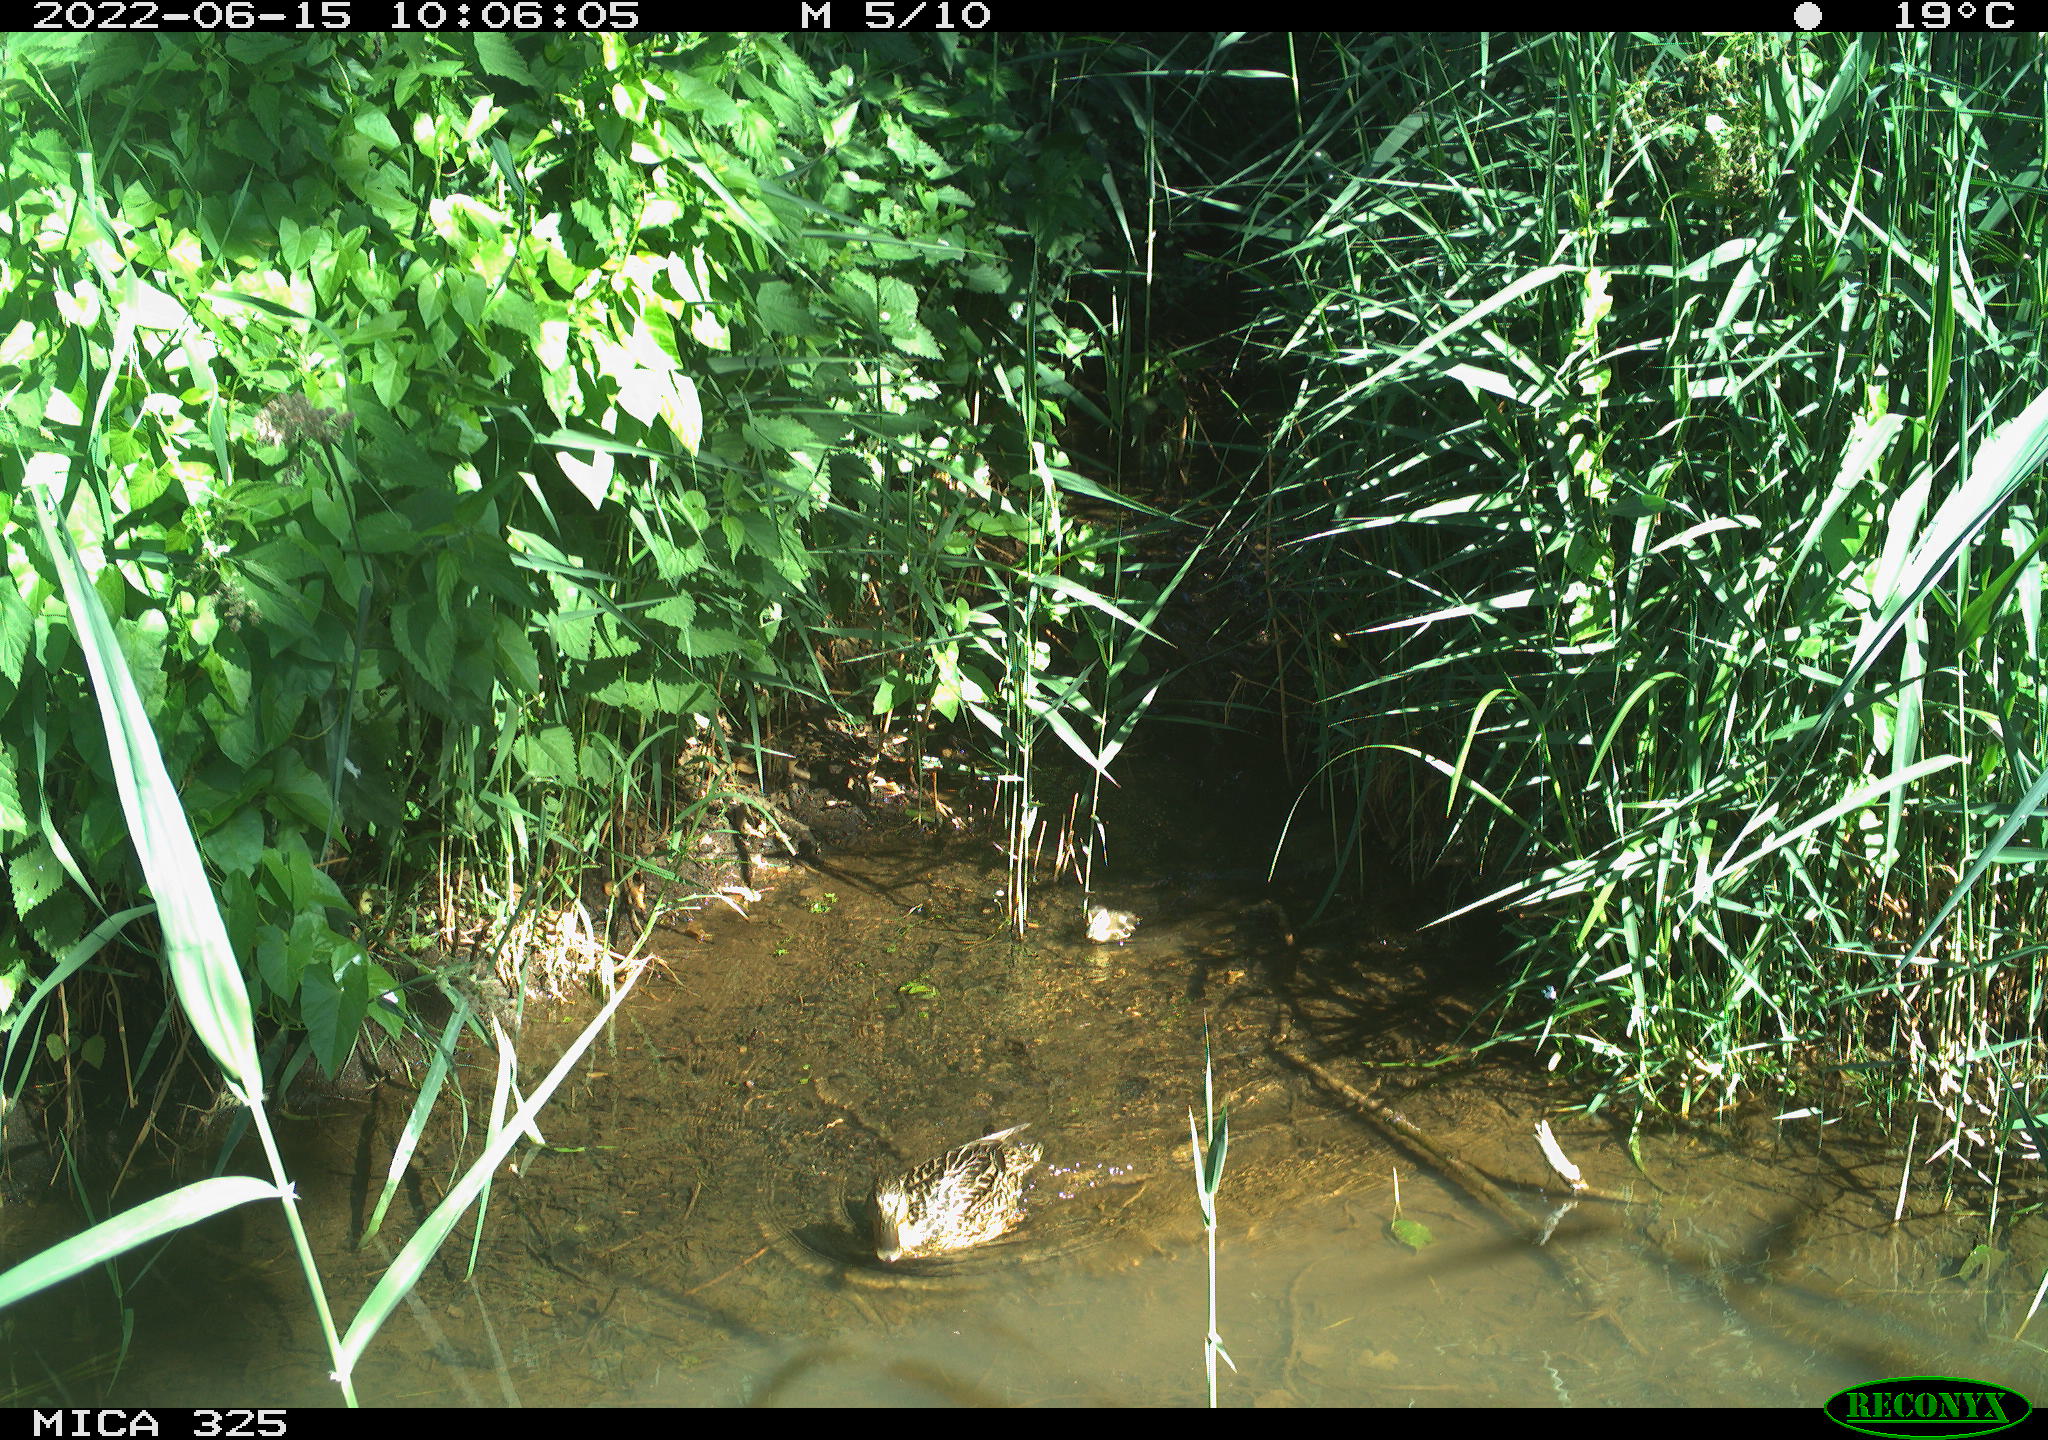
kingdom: Animalia
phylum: Chordata
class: Aves
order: Anseriformes
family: Anatidae
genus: Anas
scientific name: Anas platyrhynchos
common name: Mallard
